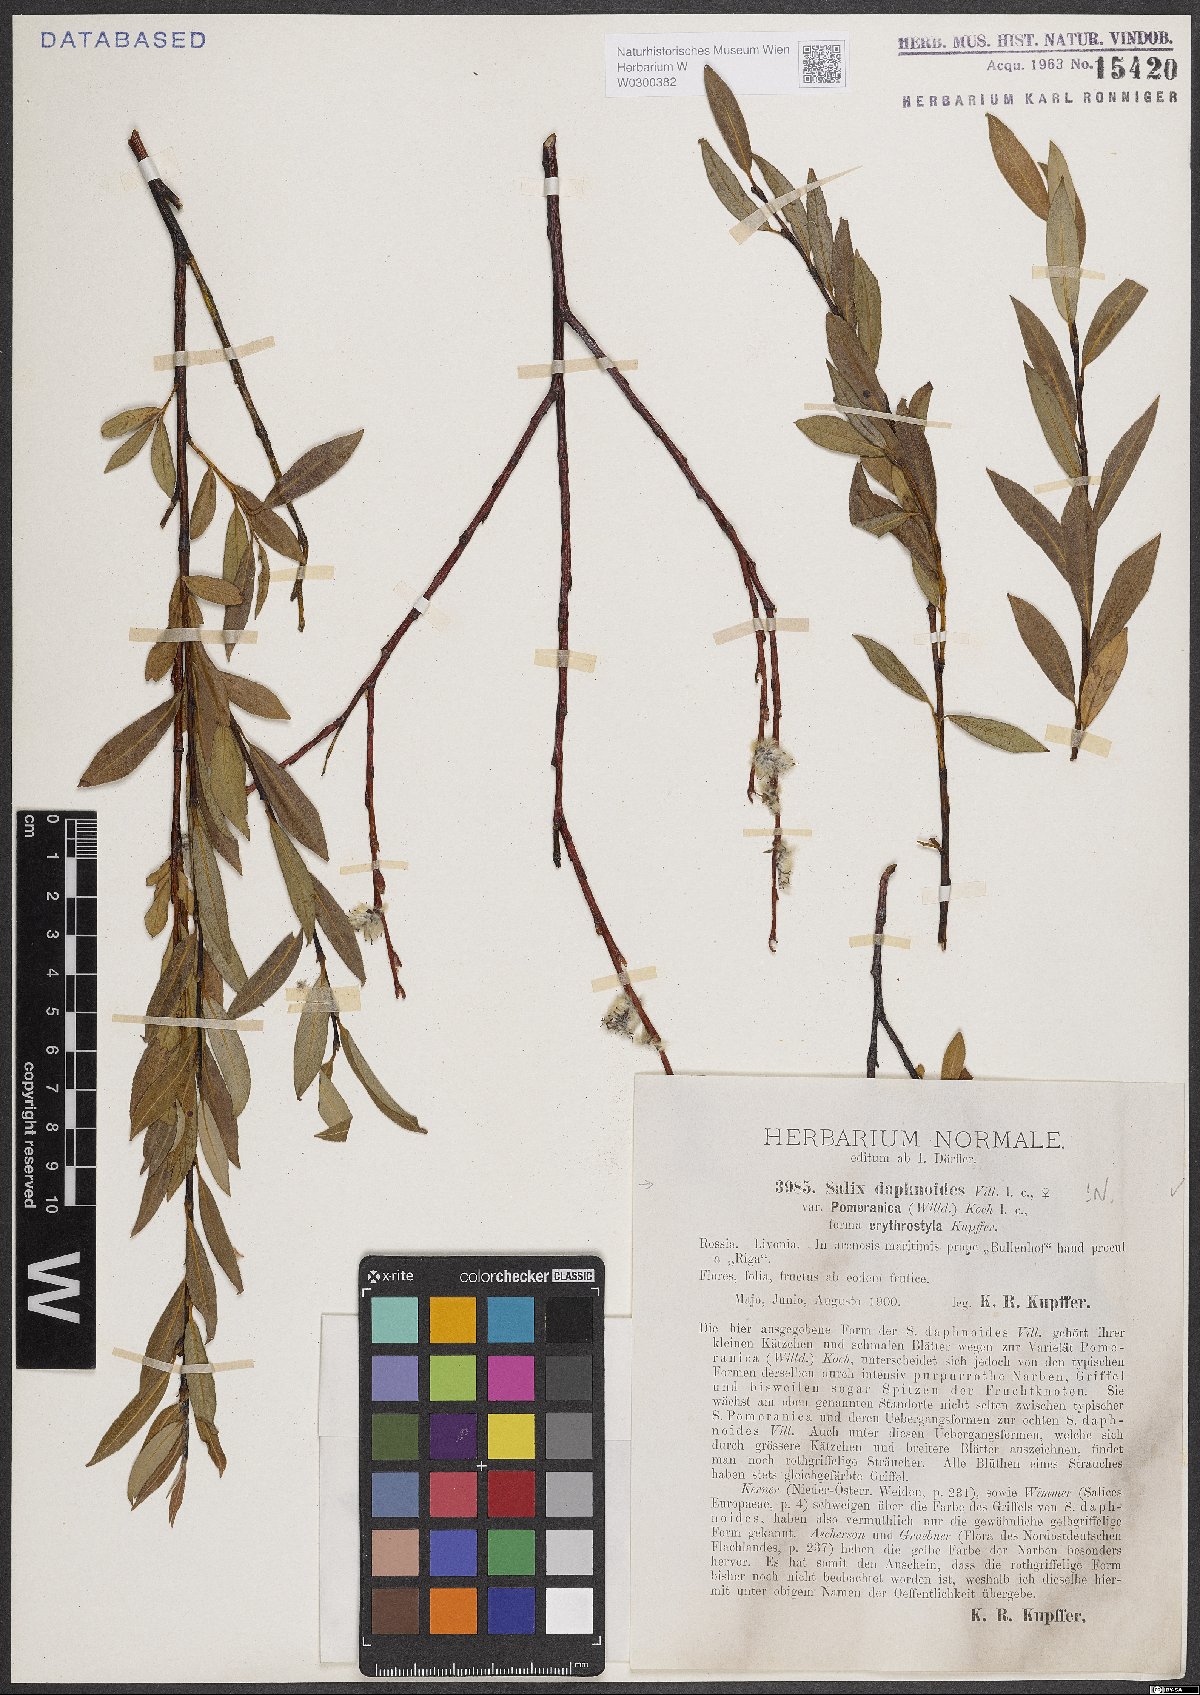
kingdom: Plantae
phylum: Tracheophyta
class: Magnoliopsida
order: Malpighiales
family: Salicaceae
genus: Salix
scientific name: Salix daphnoides
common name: European violet-willow
